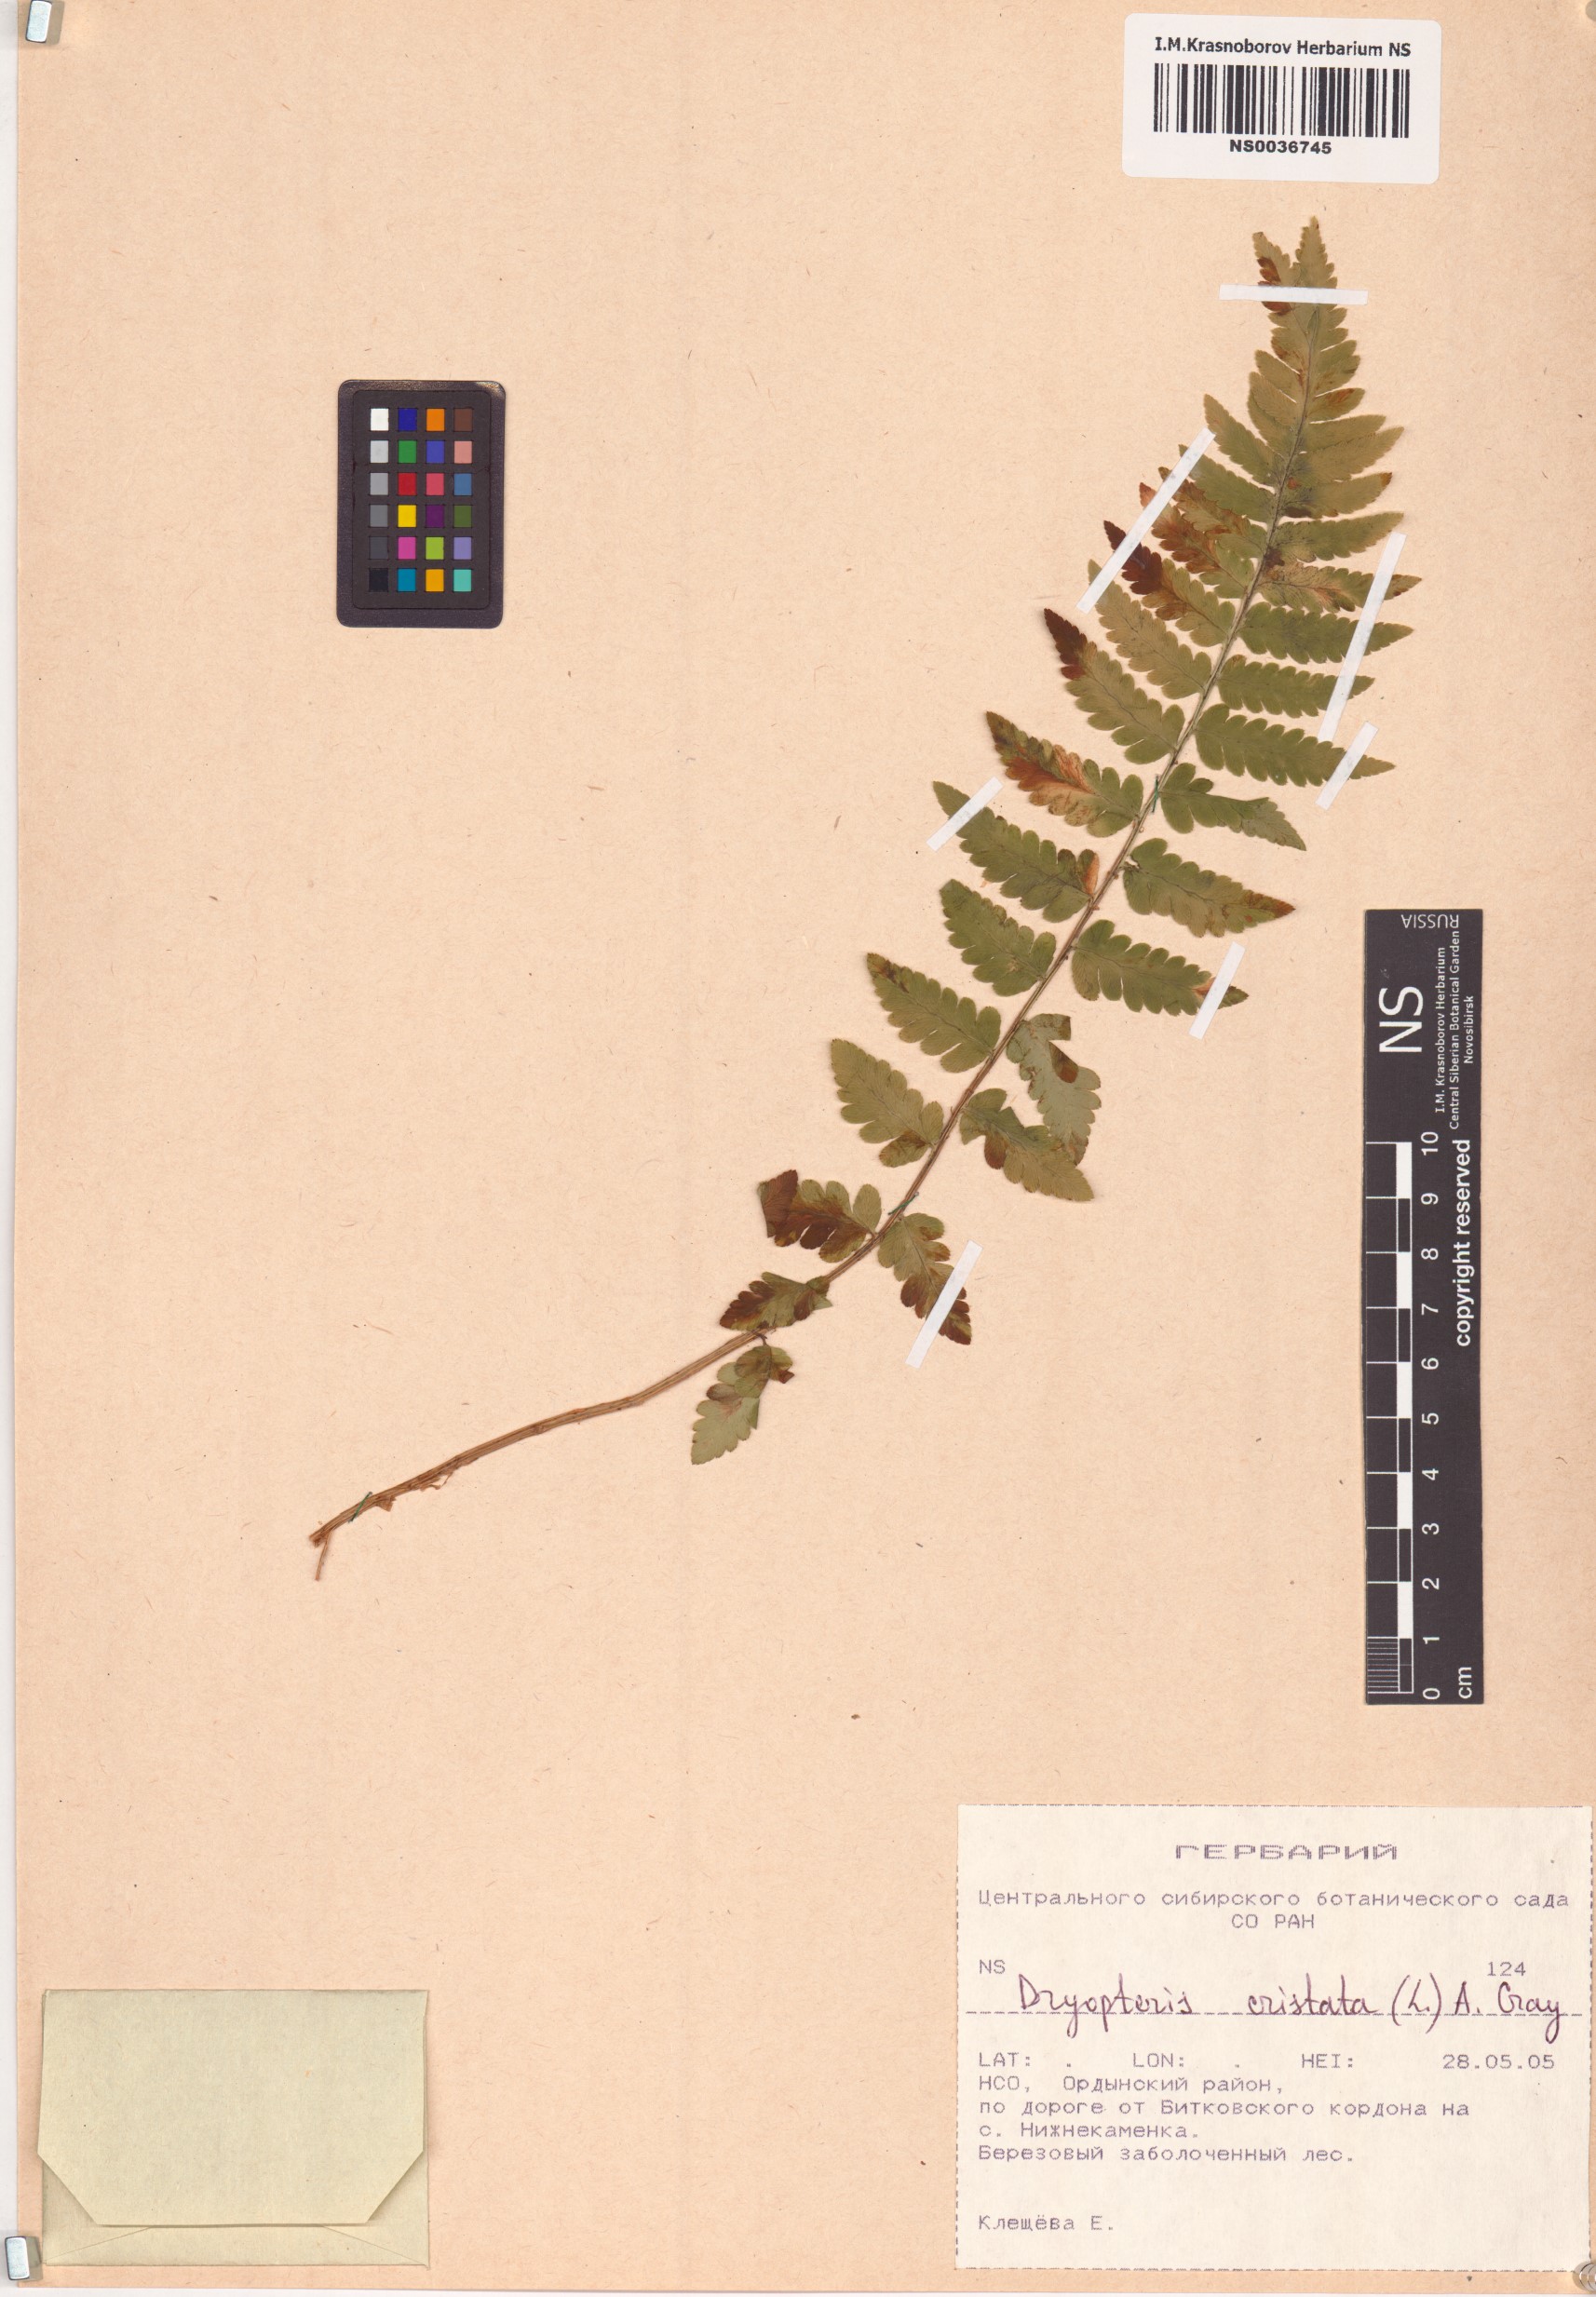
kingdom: Plantae
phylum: Tracheophyta
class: Polypodiopsida
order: Polypodiales
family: Dryopteridaceae
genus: Dryopteris
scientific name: Dryopteris cristata
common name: Crested wood fern
